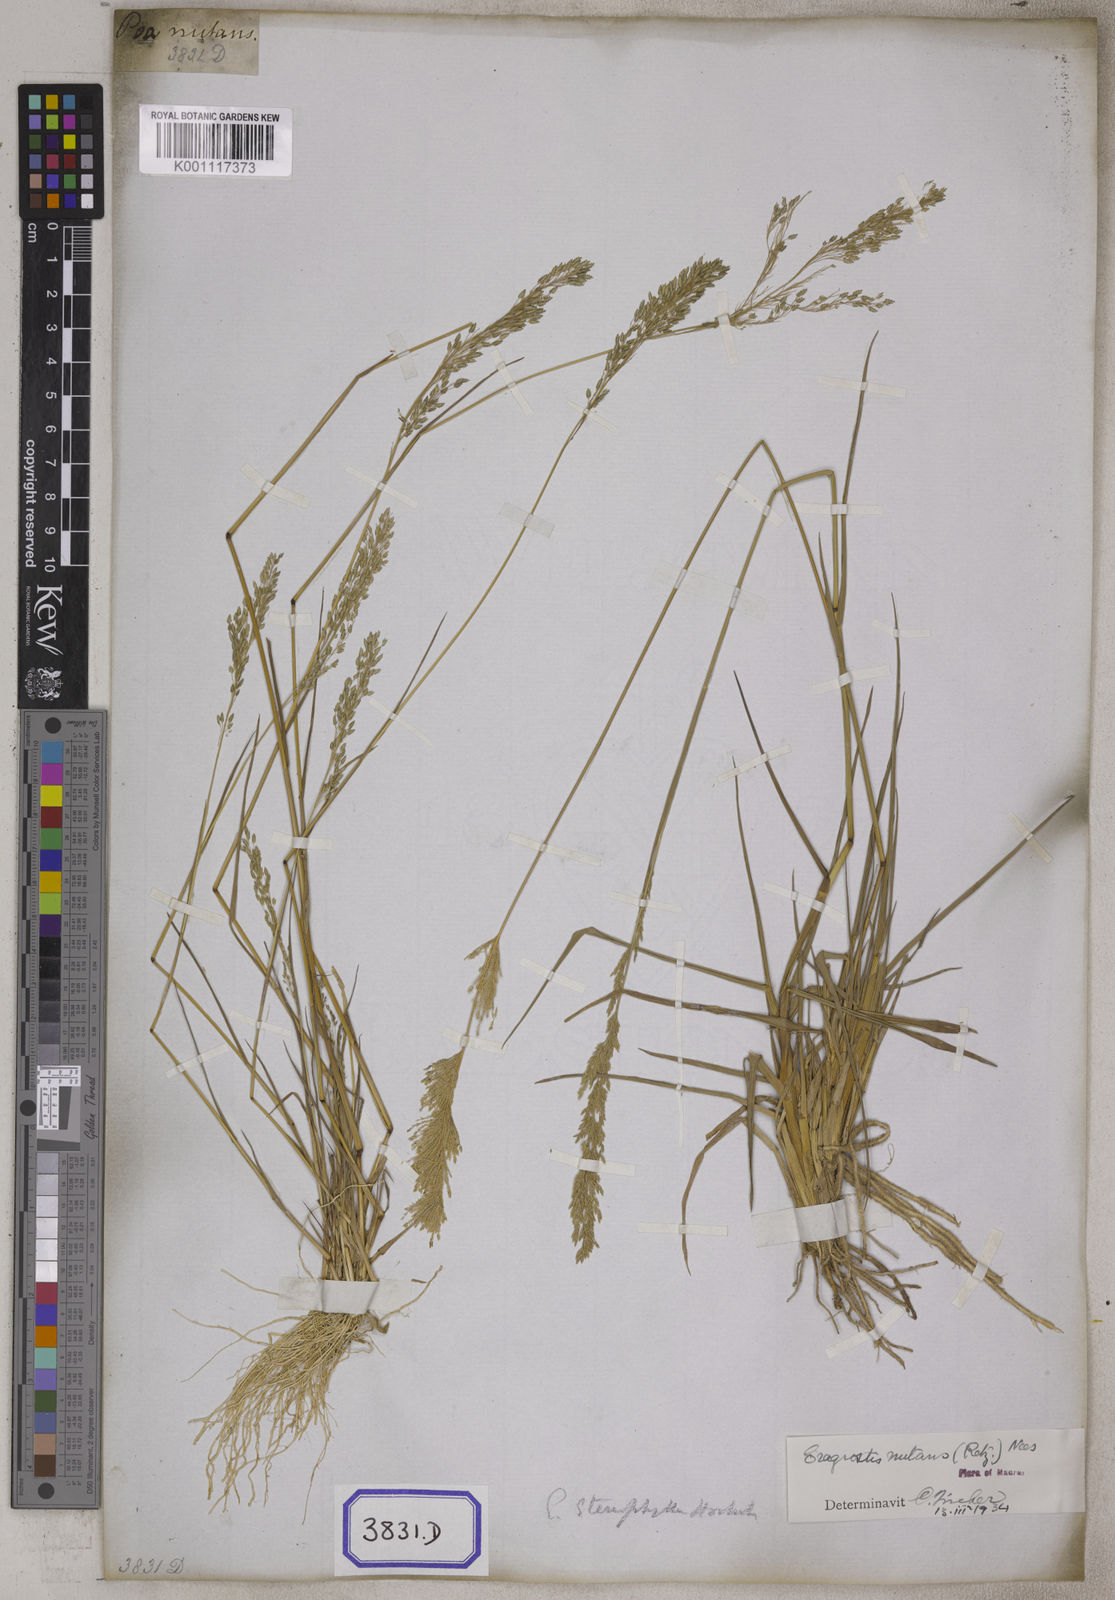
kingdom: Plantae
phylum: Tracheophyta
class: Liliopsida
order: Poales
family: Poaceae
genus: Eragrostis
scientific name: Eragrostis
